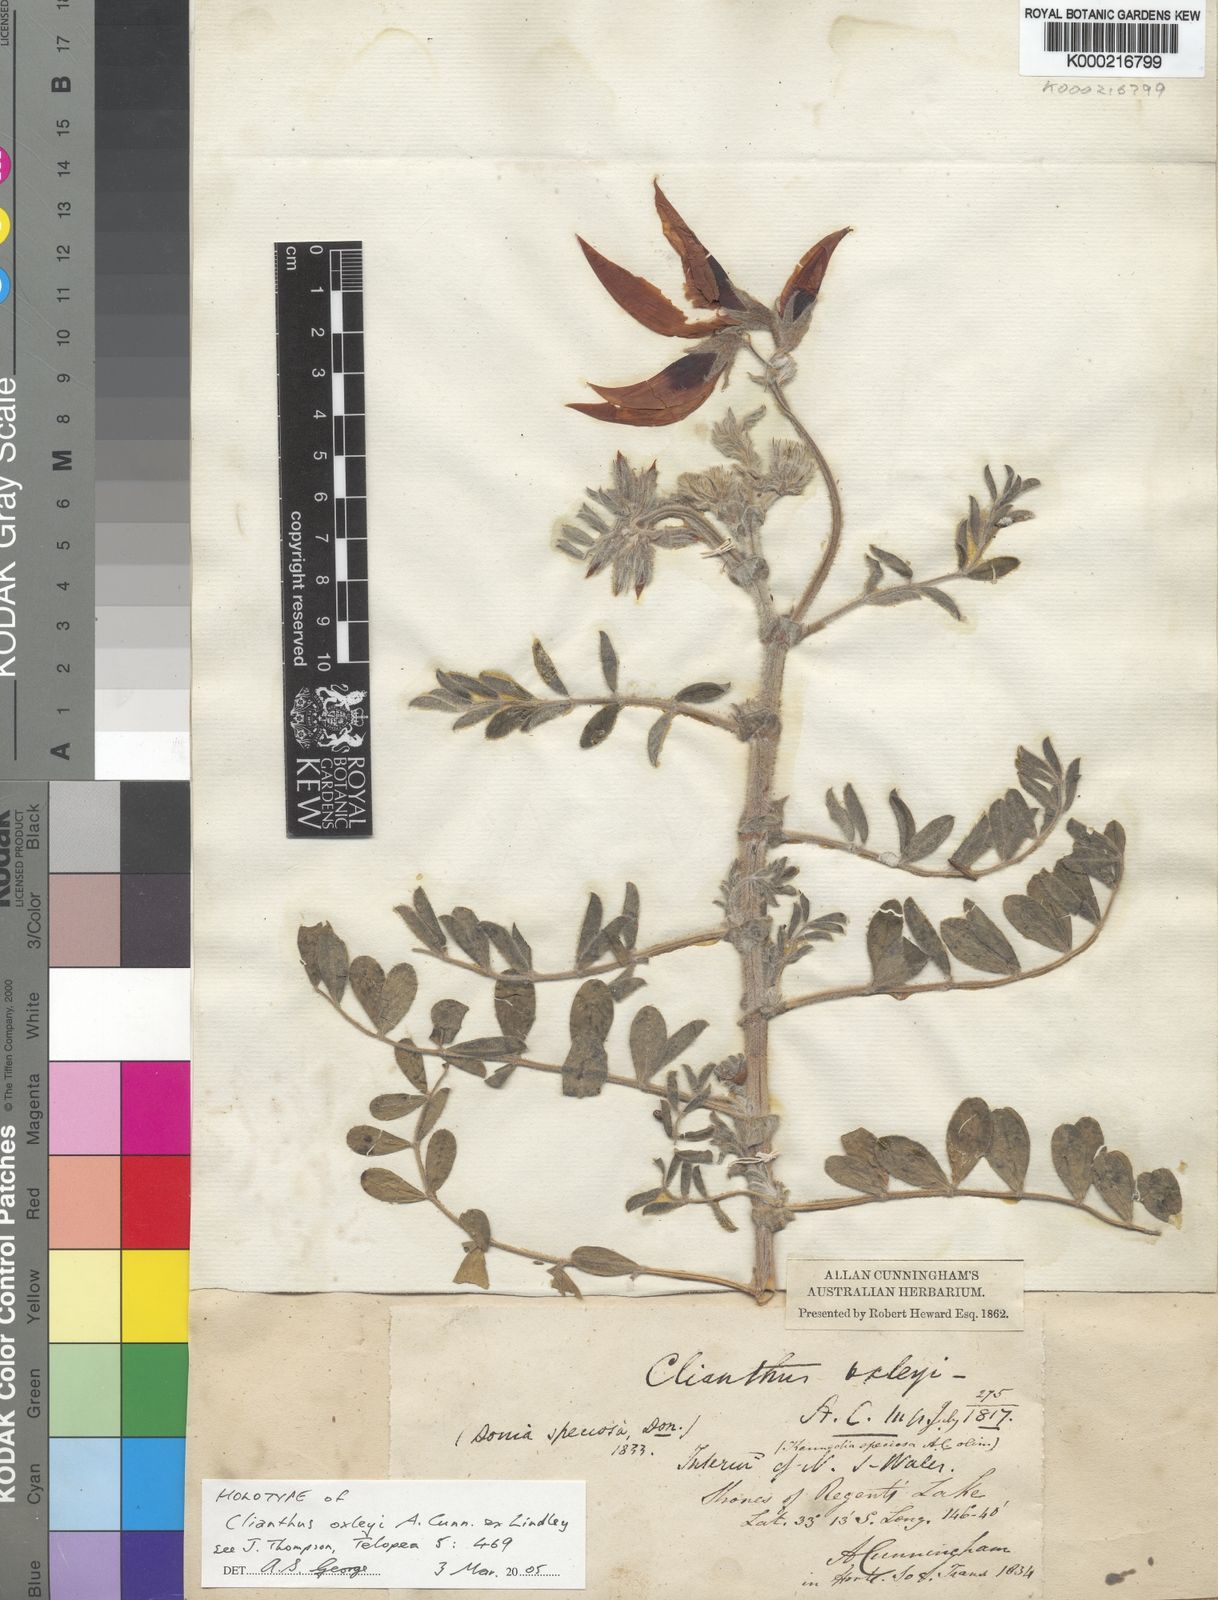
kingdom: Plantae
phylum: Tracheophyta
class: Magnoliopsida
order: Fabales
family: Fabaceae
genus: Swainsona
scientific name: Swainsona formosa
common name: Sturt's desert-pea
